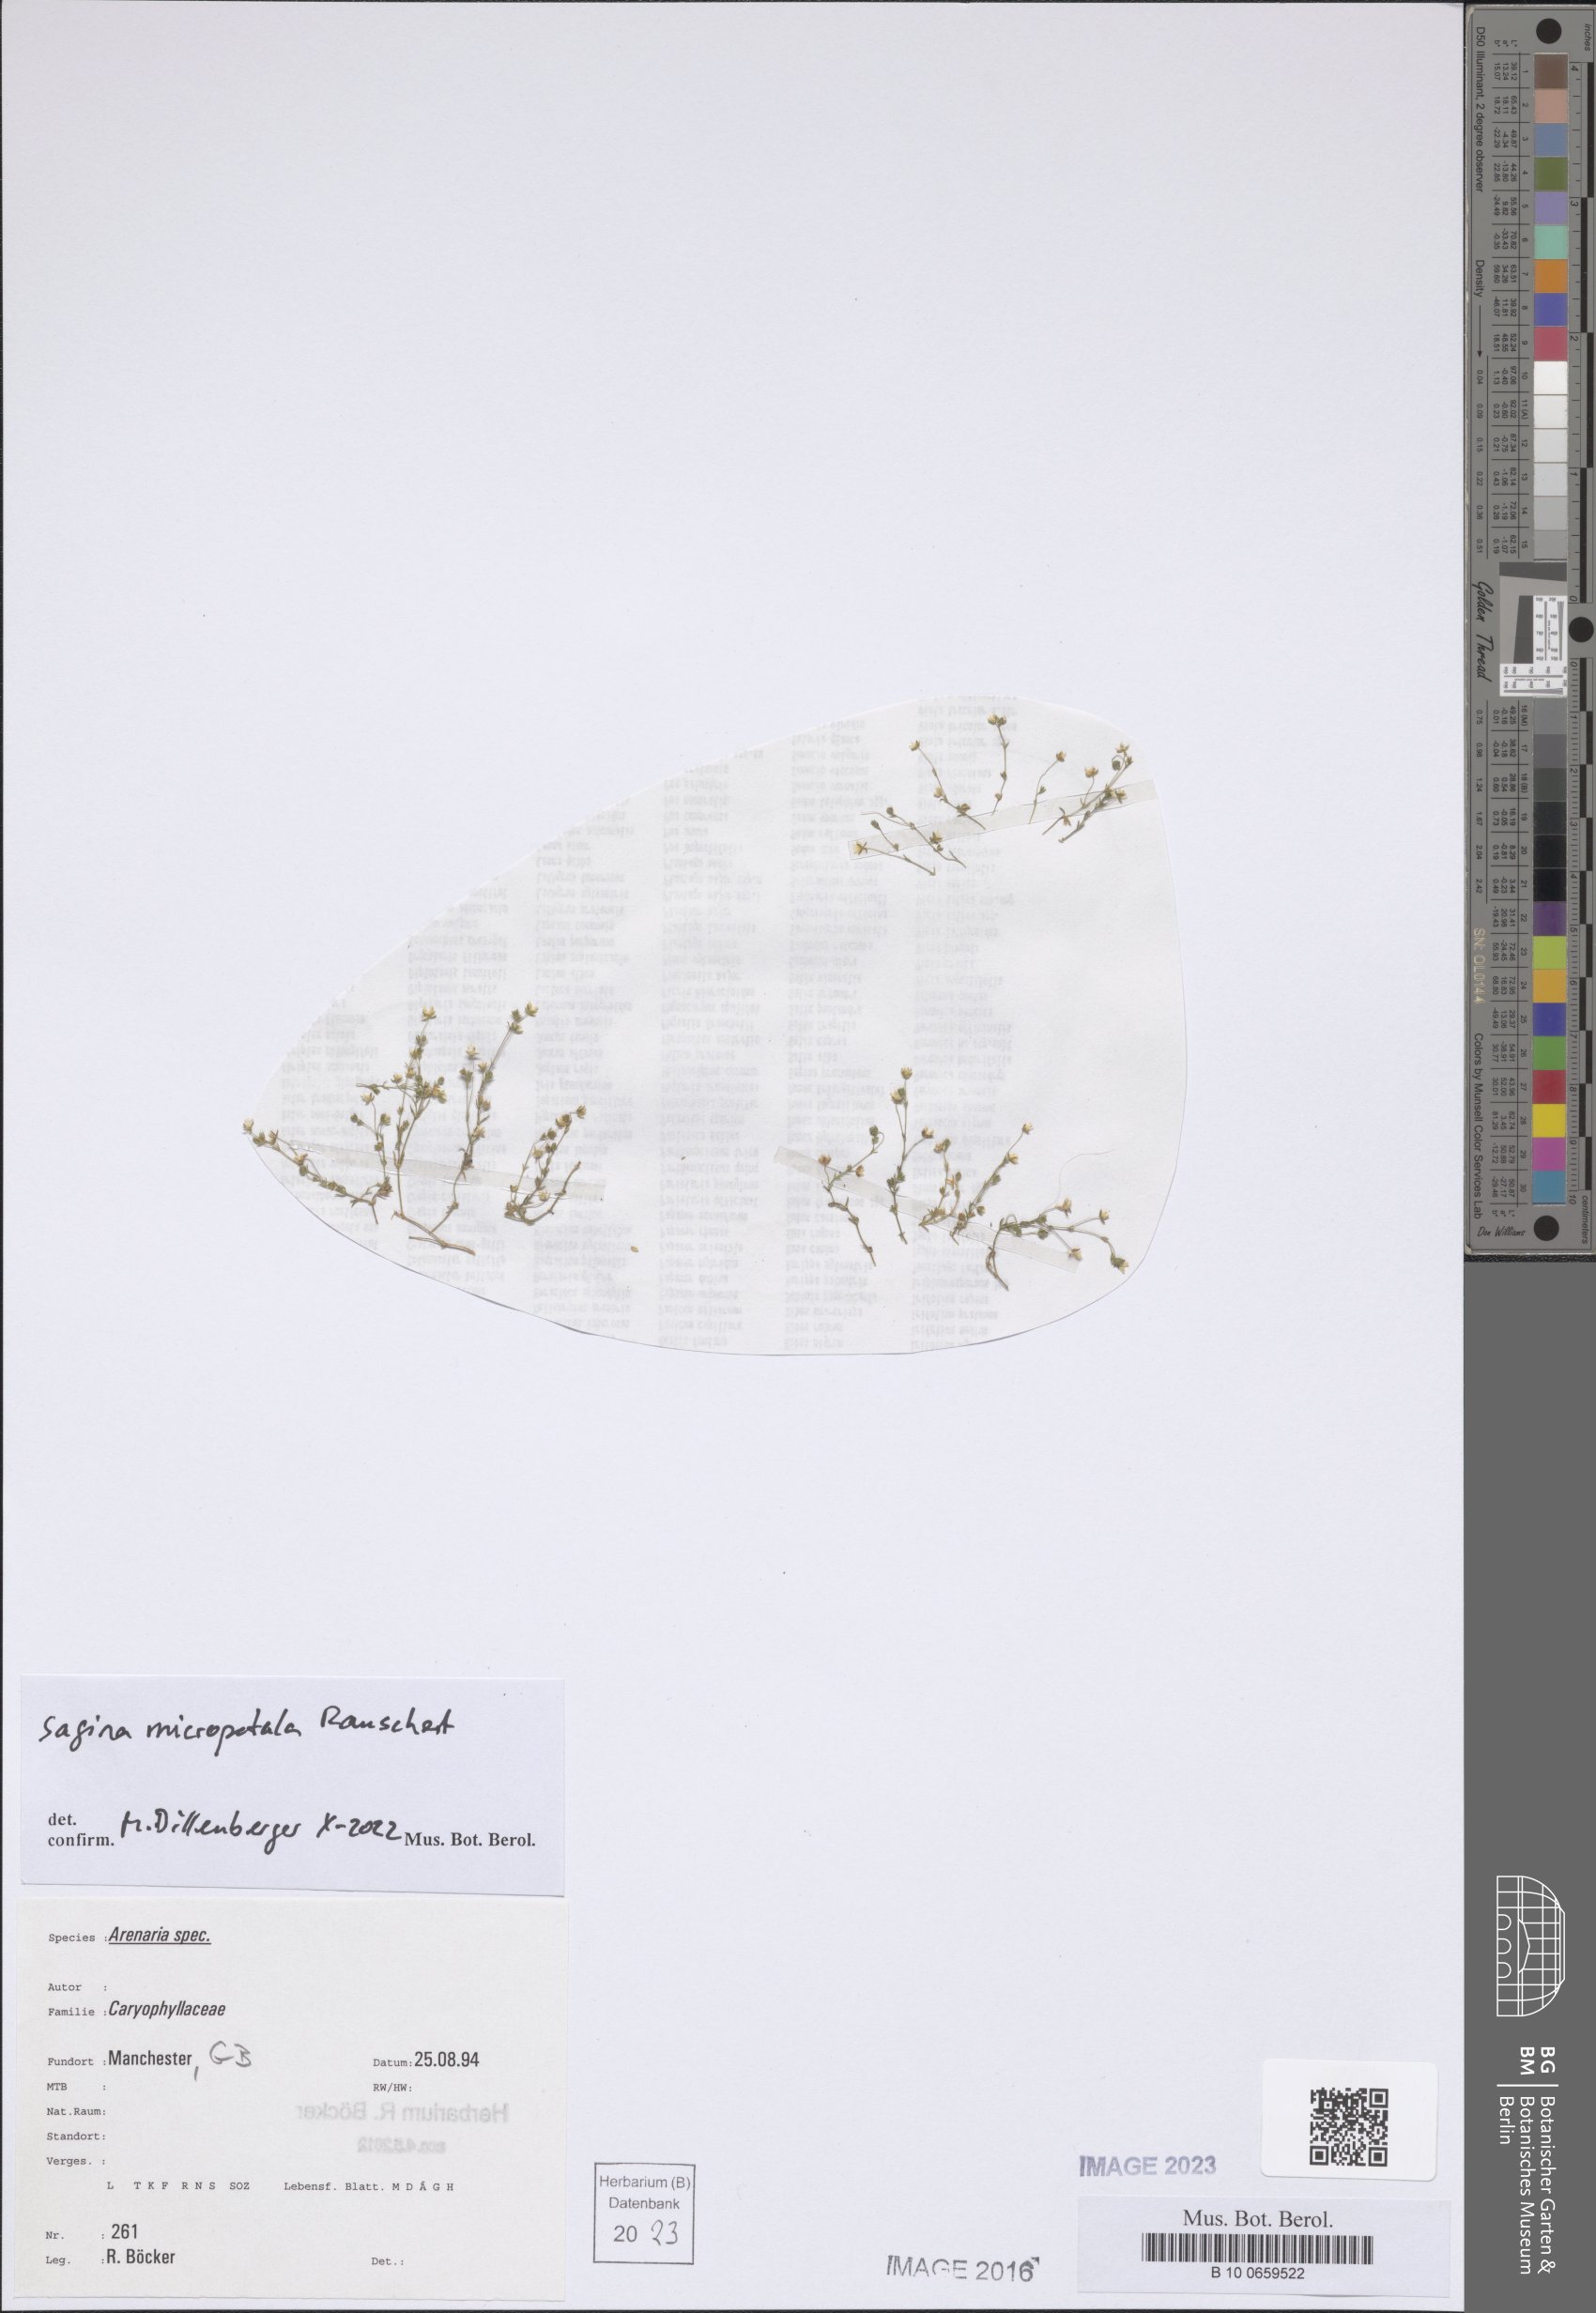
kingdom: Plantae
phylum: Tracheophyta
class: Magnoliopsida
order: Caryophyllales
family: Caryophyllaceae
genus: Sagina
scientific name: Sagina micropetala
